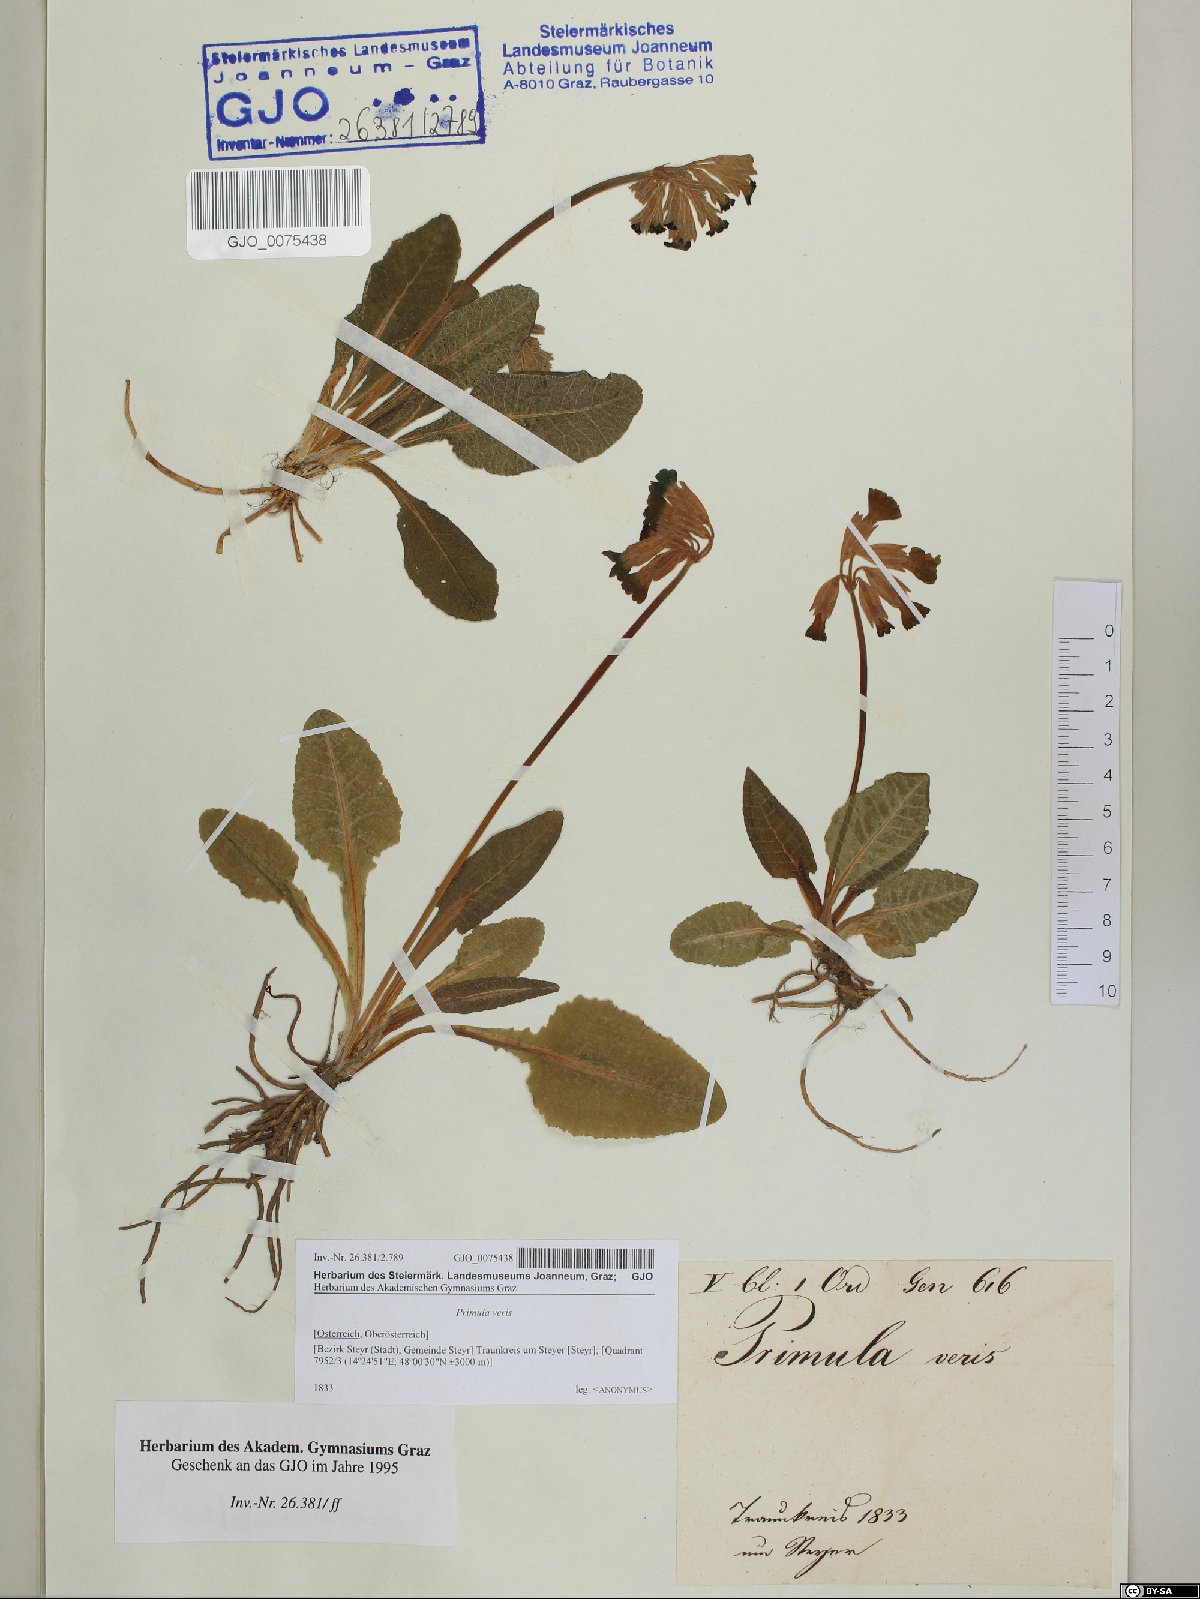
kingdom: Plantae
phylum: Tracheophyta
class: Magnoliopsida
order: Ericales
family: Primulaceae
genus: Primula
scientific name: Primula veris
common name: Cowslip
